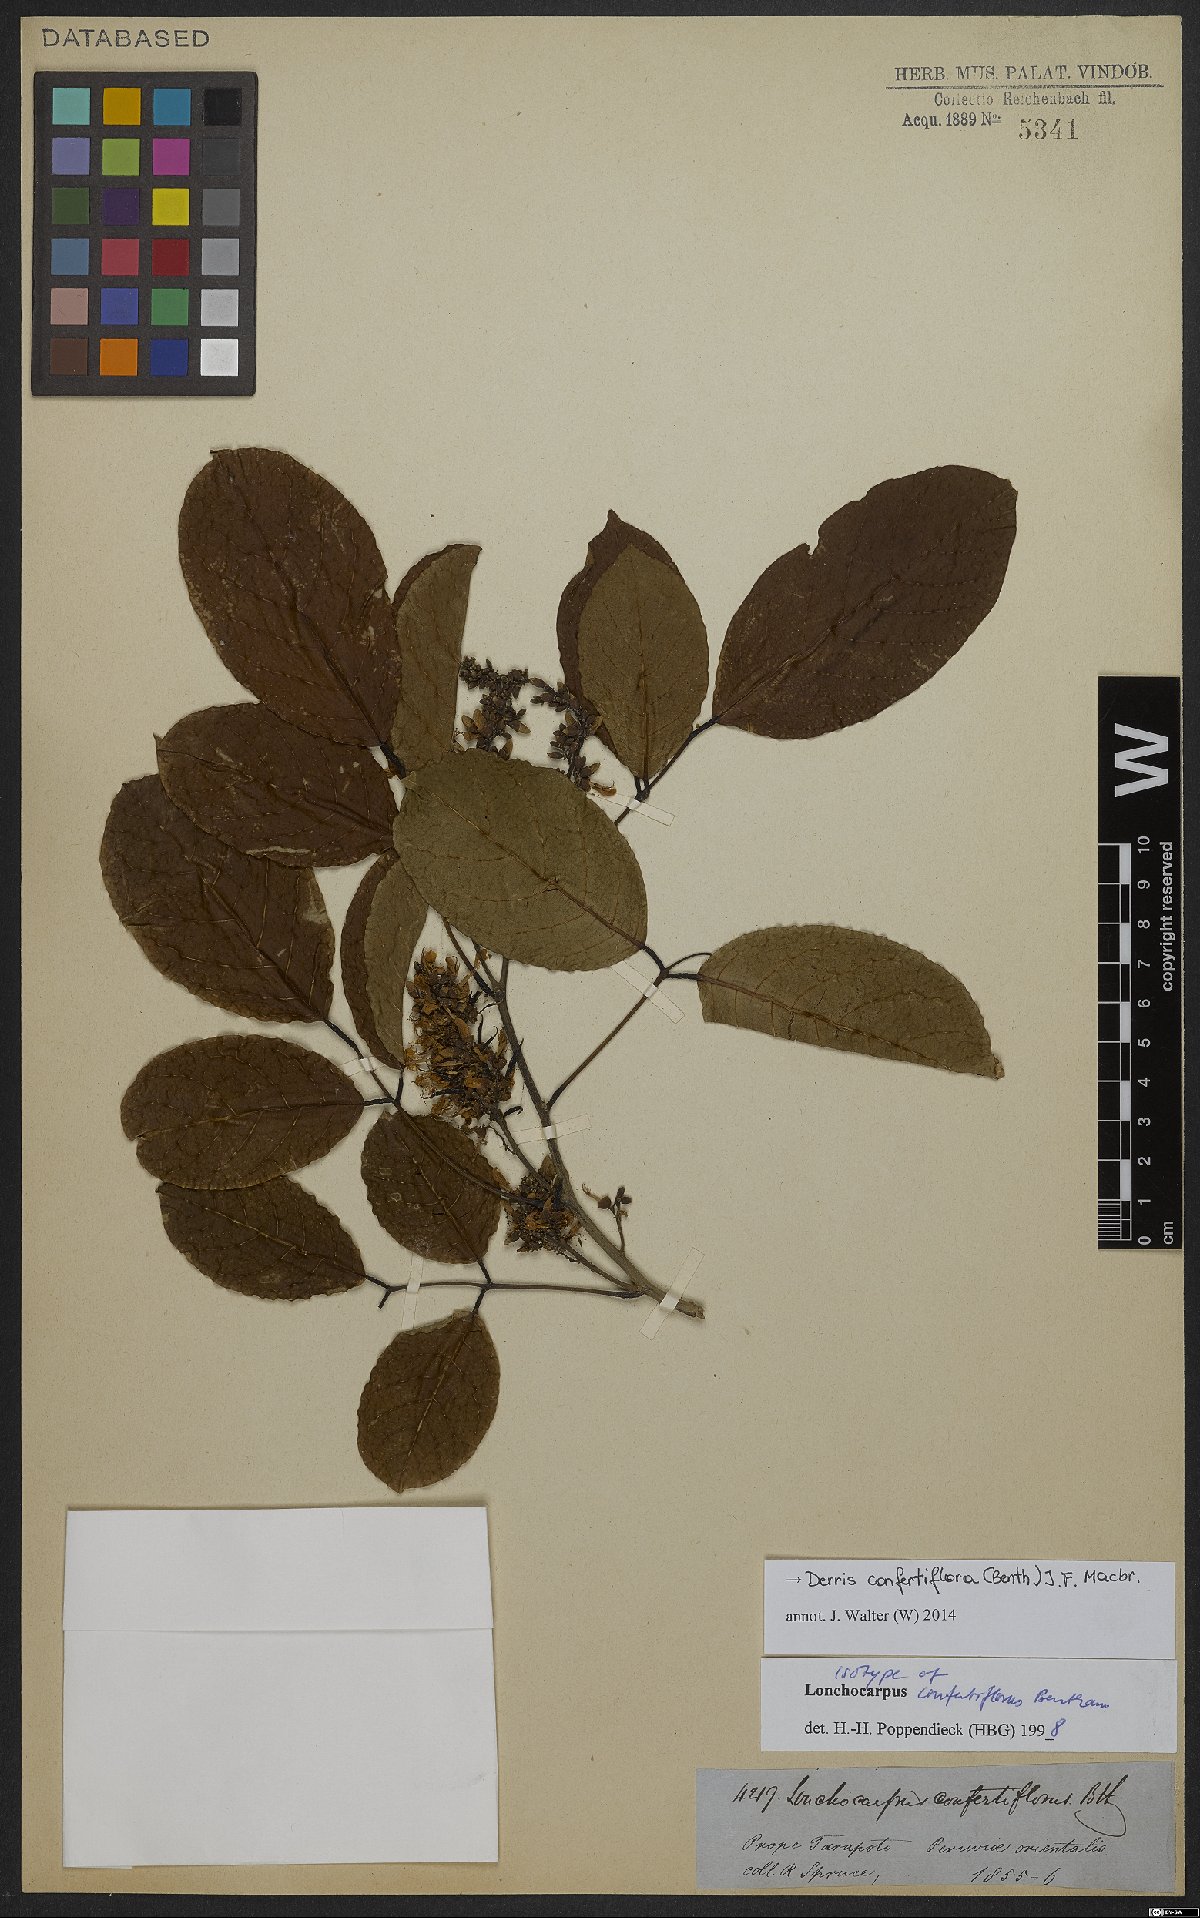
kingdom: Plantae
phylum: Tracheophyta
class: Magnoliopsida
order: Fabales
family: Fabaceae
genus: Dahlstedtia
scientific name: Dahlstedtia confertiflora
